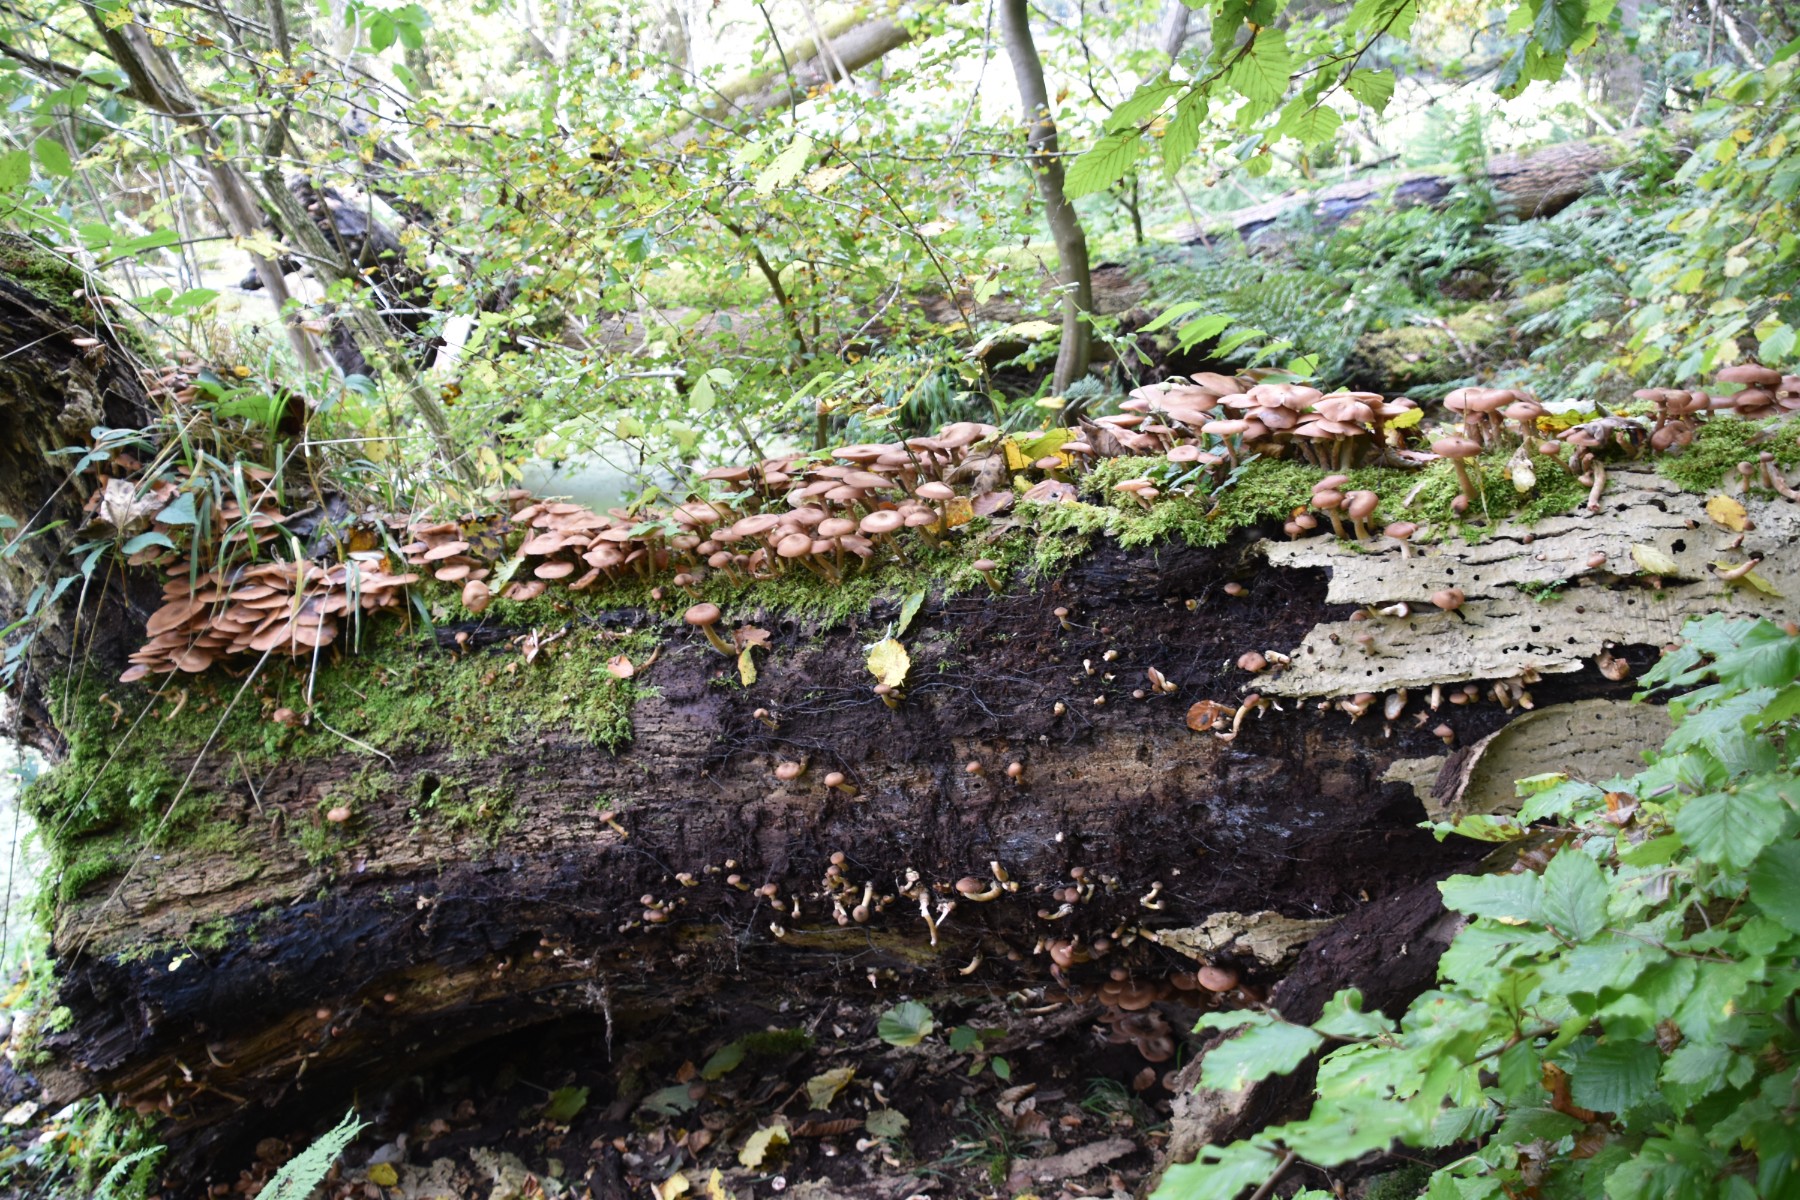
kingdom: Fungi
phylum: Basidiomycota
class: Agaricomycetes
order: Agaricales
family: Physalacriaceae
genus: Armillaria
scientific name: Armillaria lutea
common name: køllestokket honningsvamp
